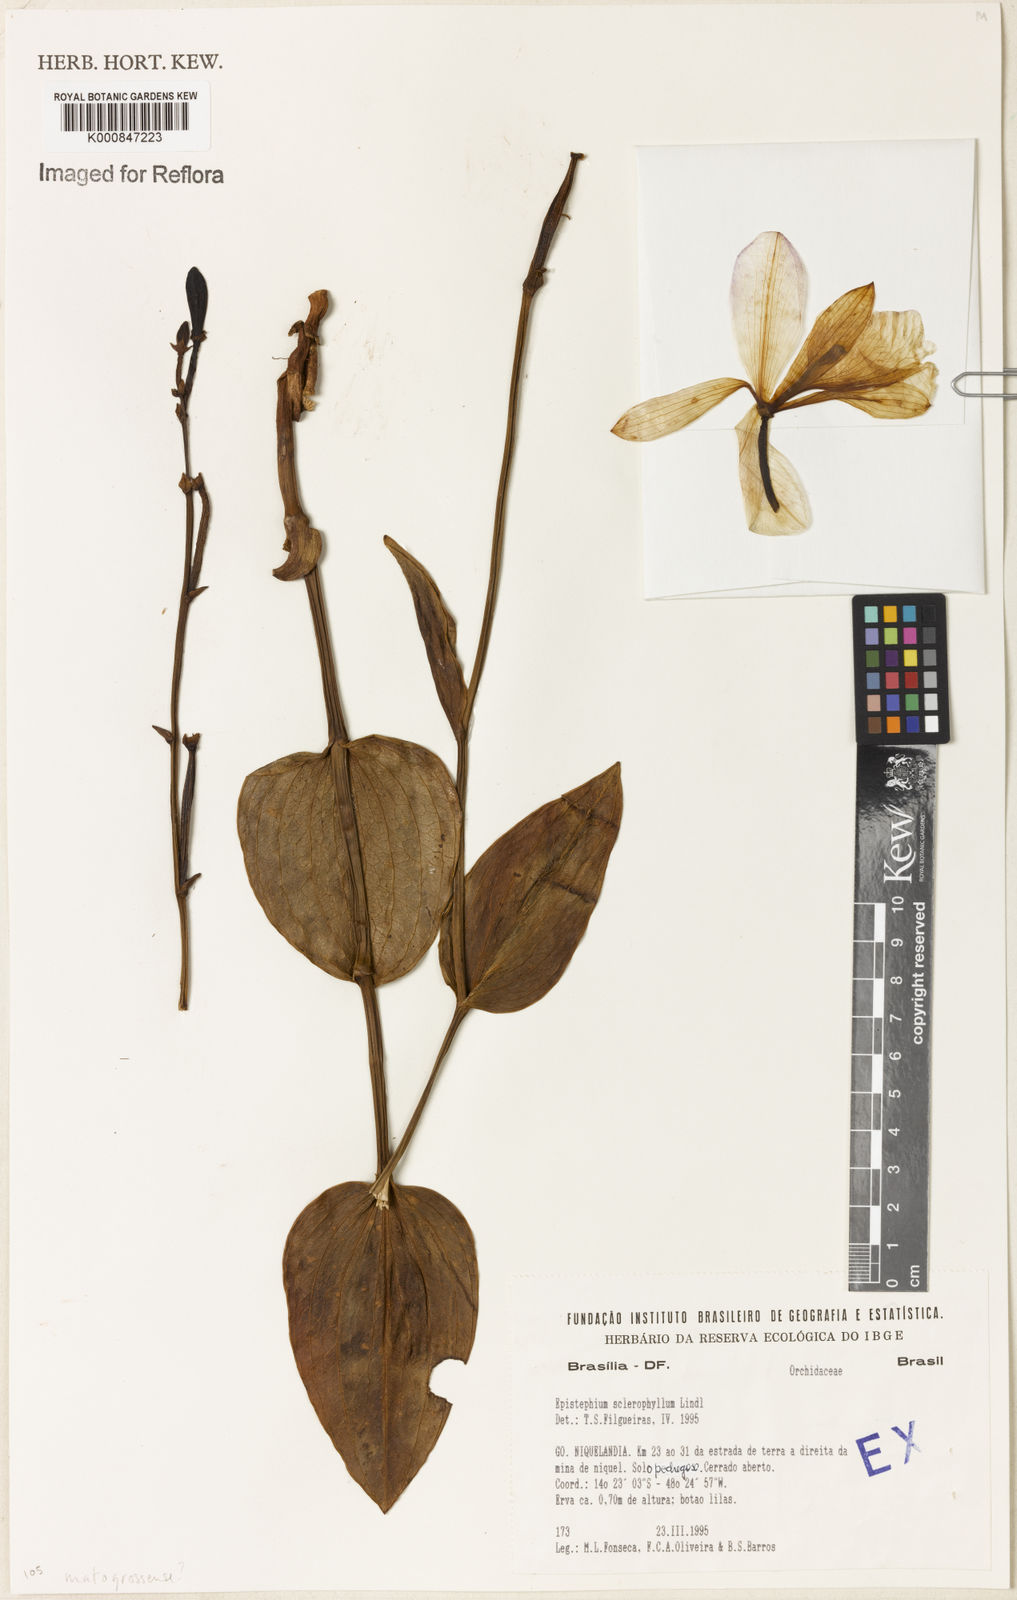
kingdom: Plantae
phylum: Tracheophyta
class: Liliopsida
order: Asparagales
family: Orchidaceae
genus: Epistephium
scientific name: Epistephium sclerophyllum
